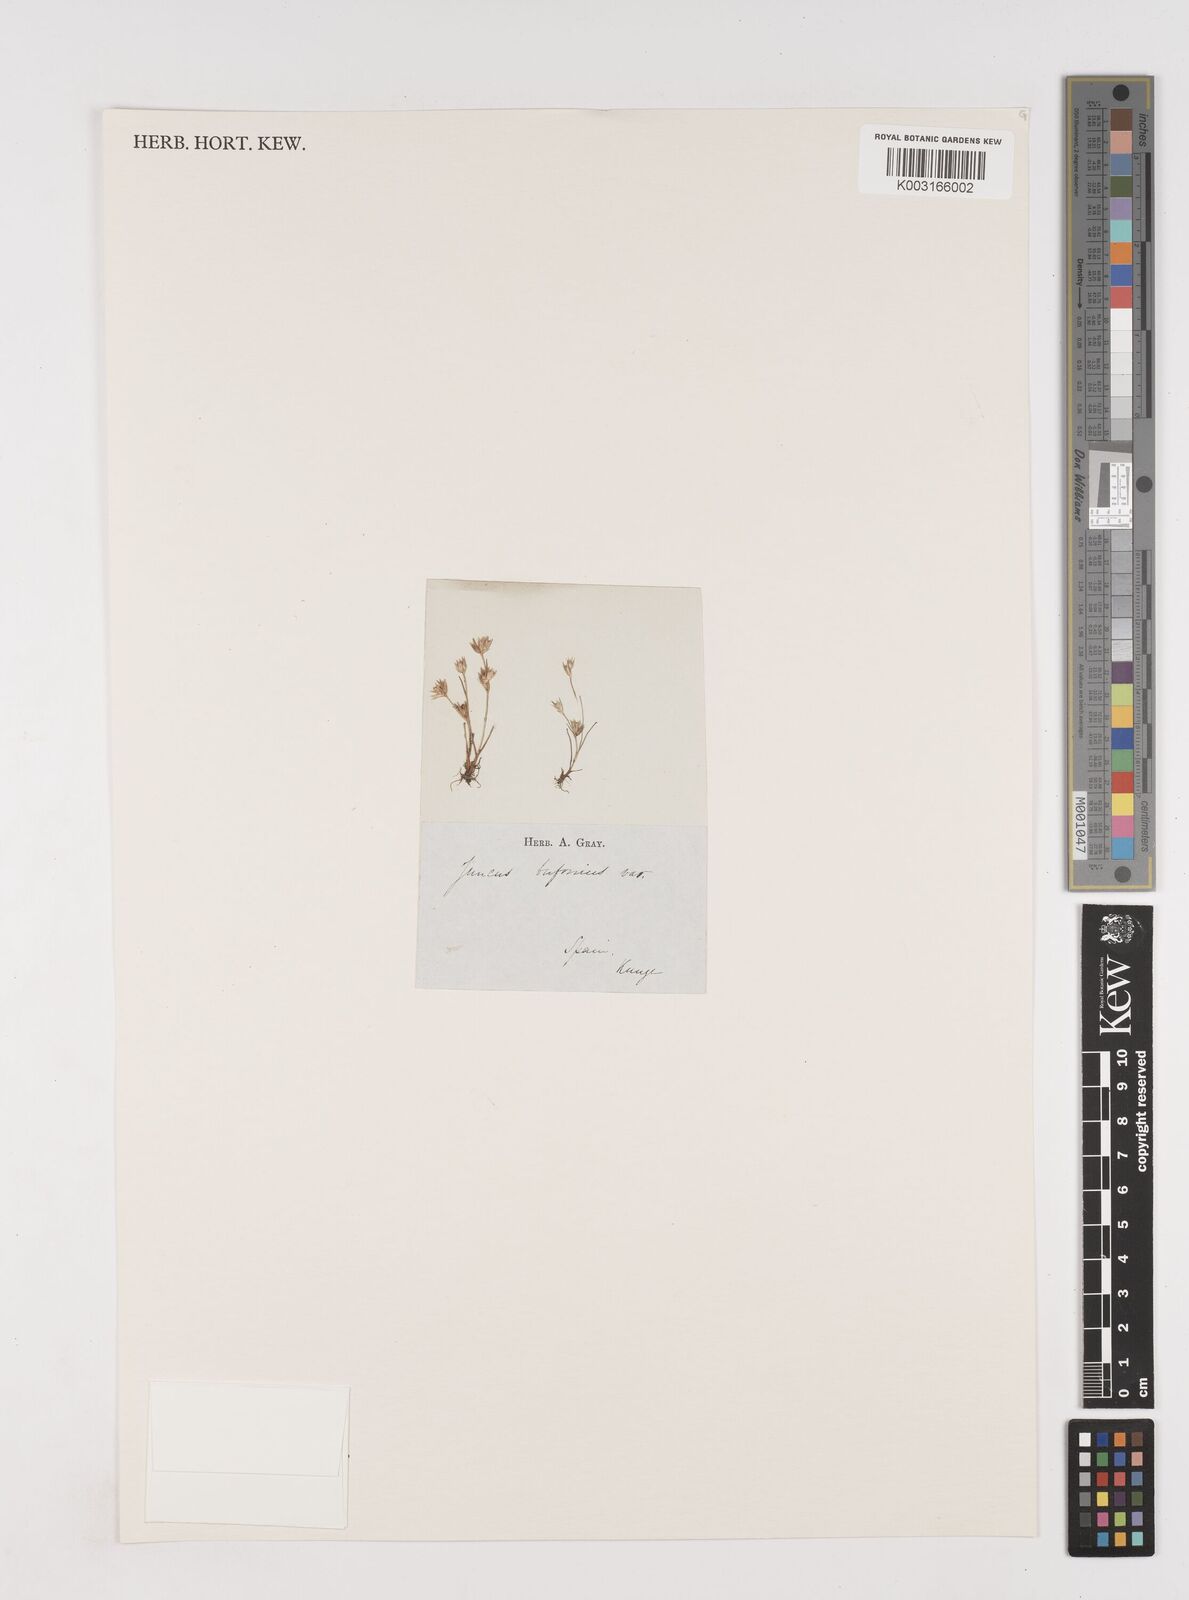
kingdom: Plantae
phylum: Tracheophyta
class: Liliopsida
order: Poales
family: Juncaceae
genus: Juncus
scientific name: Juncus bufonius
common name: Toad rush
